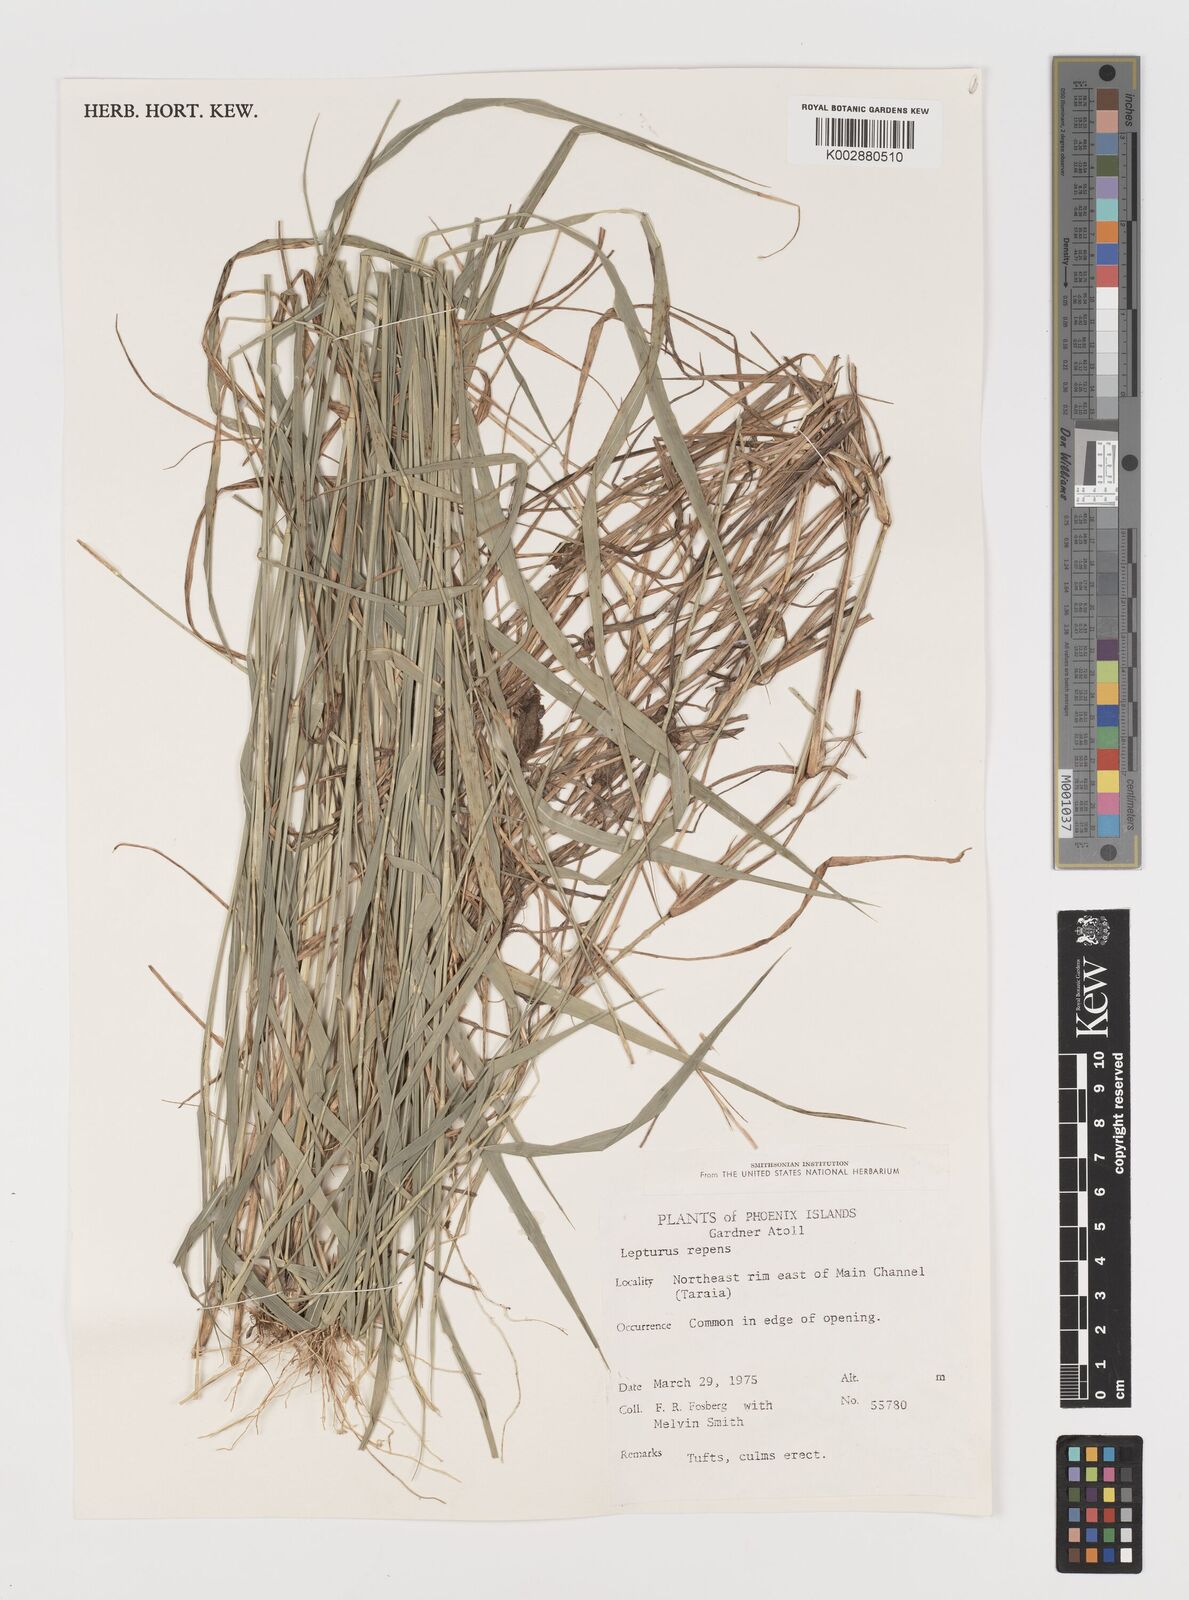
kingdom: Plantae
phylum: Tracheophyta
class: Liliopsida
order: Poales
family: Poaceae
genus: Lepturus
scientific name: Lepturus repens
